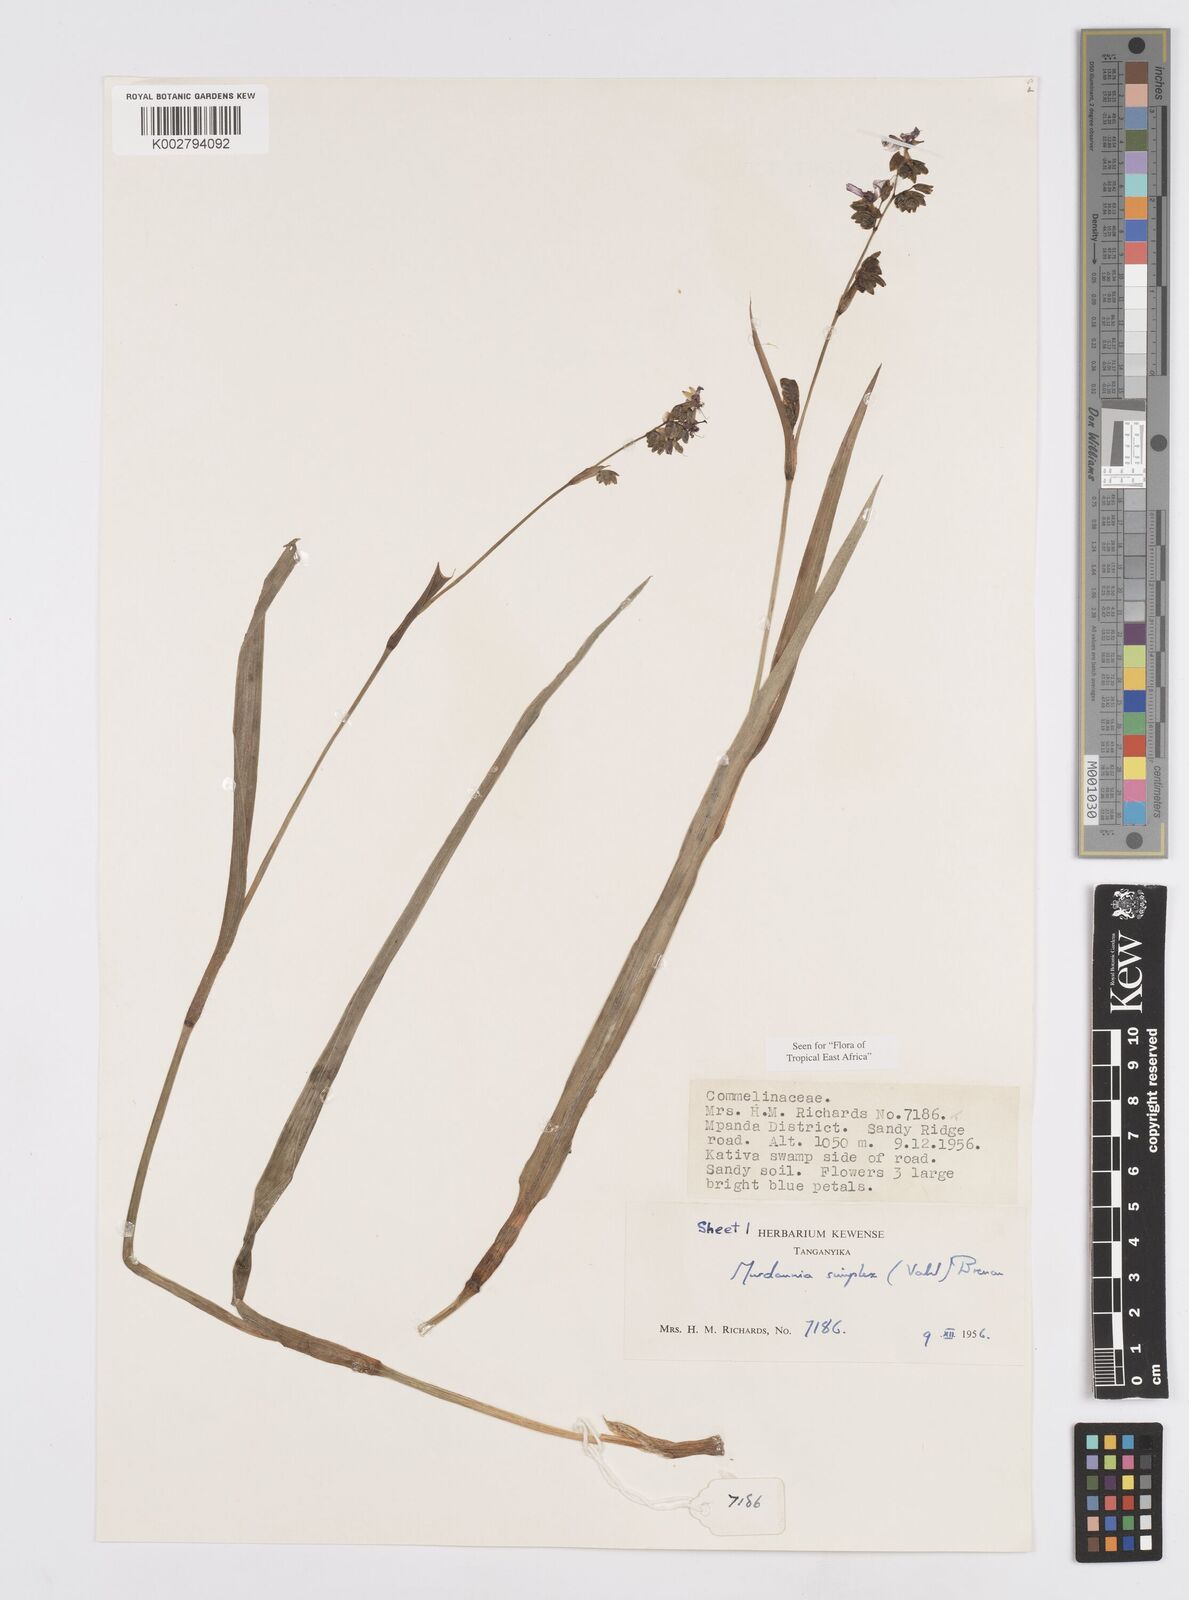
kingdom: Plantae
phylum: Tracheophyta
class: Liliopsida
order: Commelinales
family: Commelinaceae
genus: Murdannia
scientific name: Murdannia simplex
